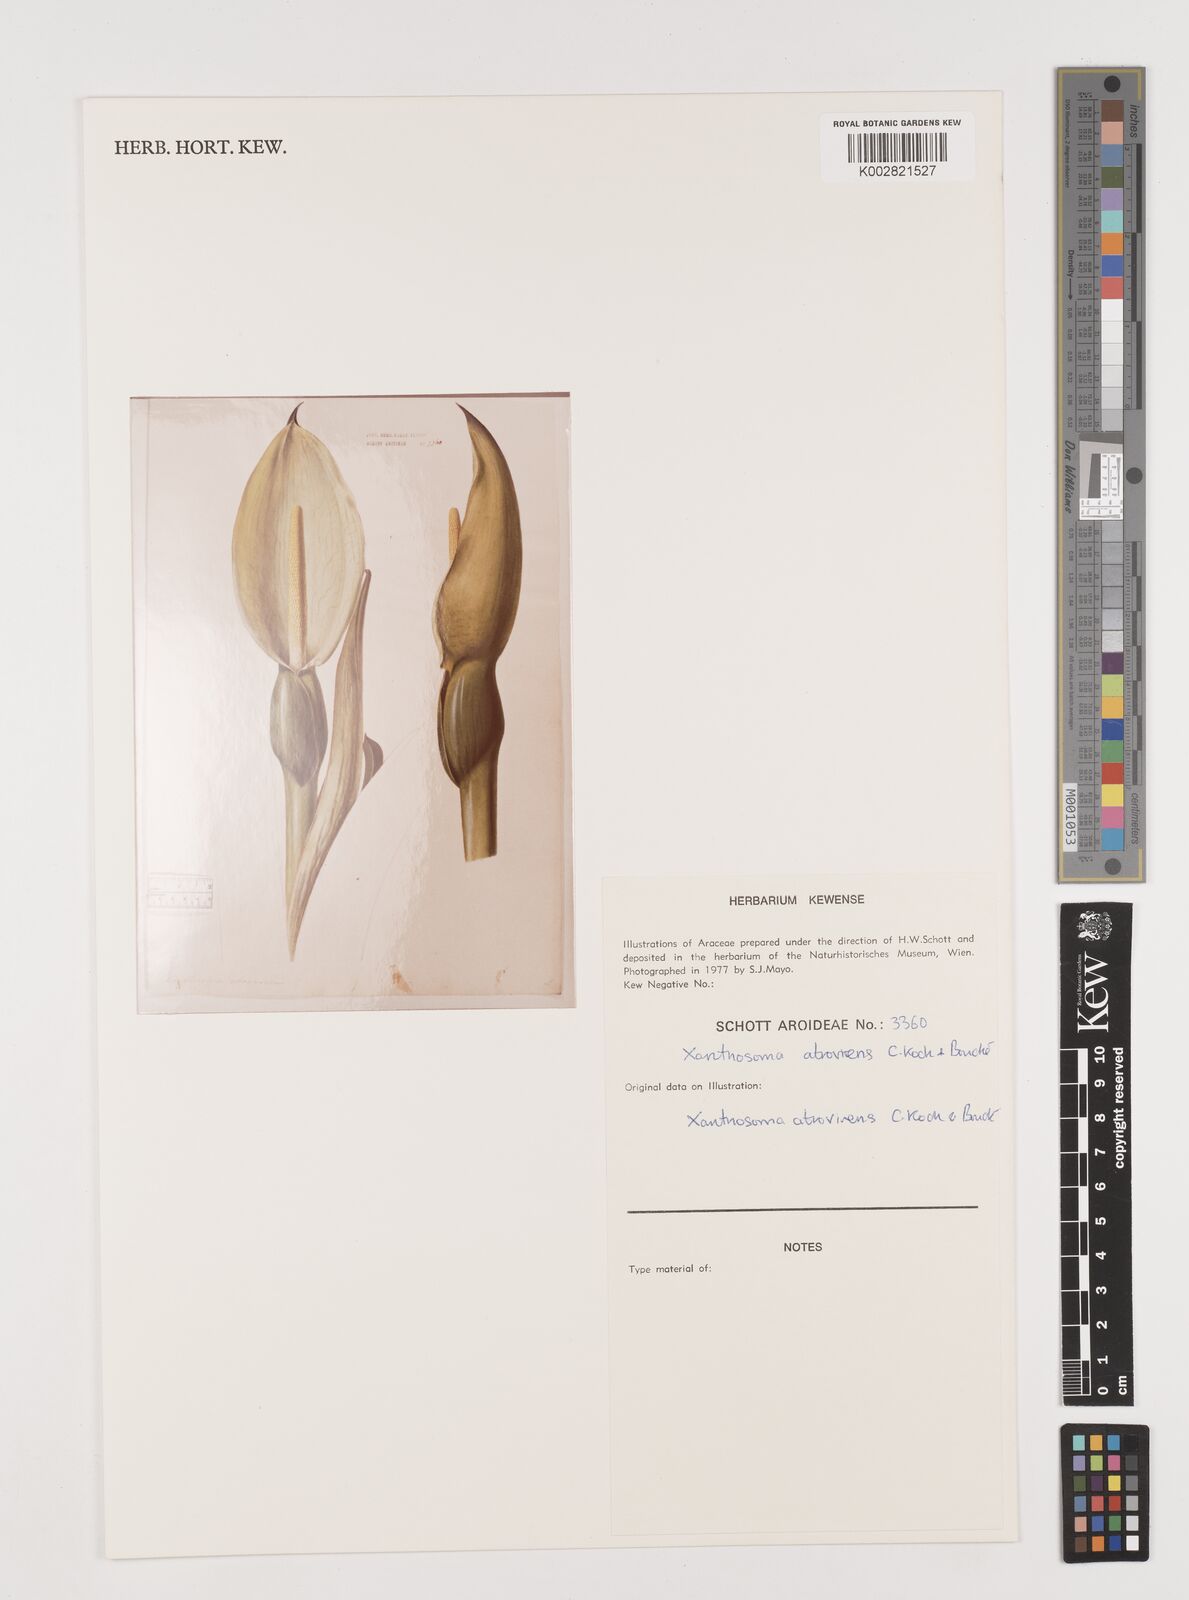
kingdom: Plantae
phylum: Tracheophyta
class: Liliopsida
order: Alismatales
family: Araceae
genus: Xanthosoma
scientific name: Xanthosoma sagittifolium
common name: Arrowleaf elephant's ear
